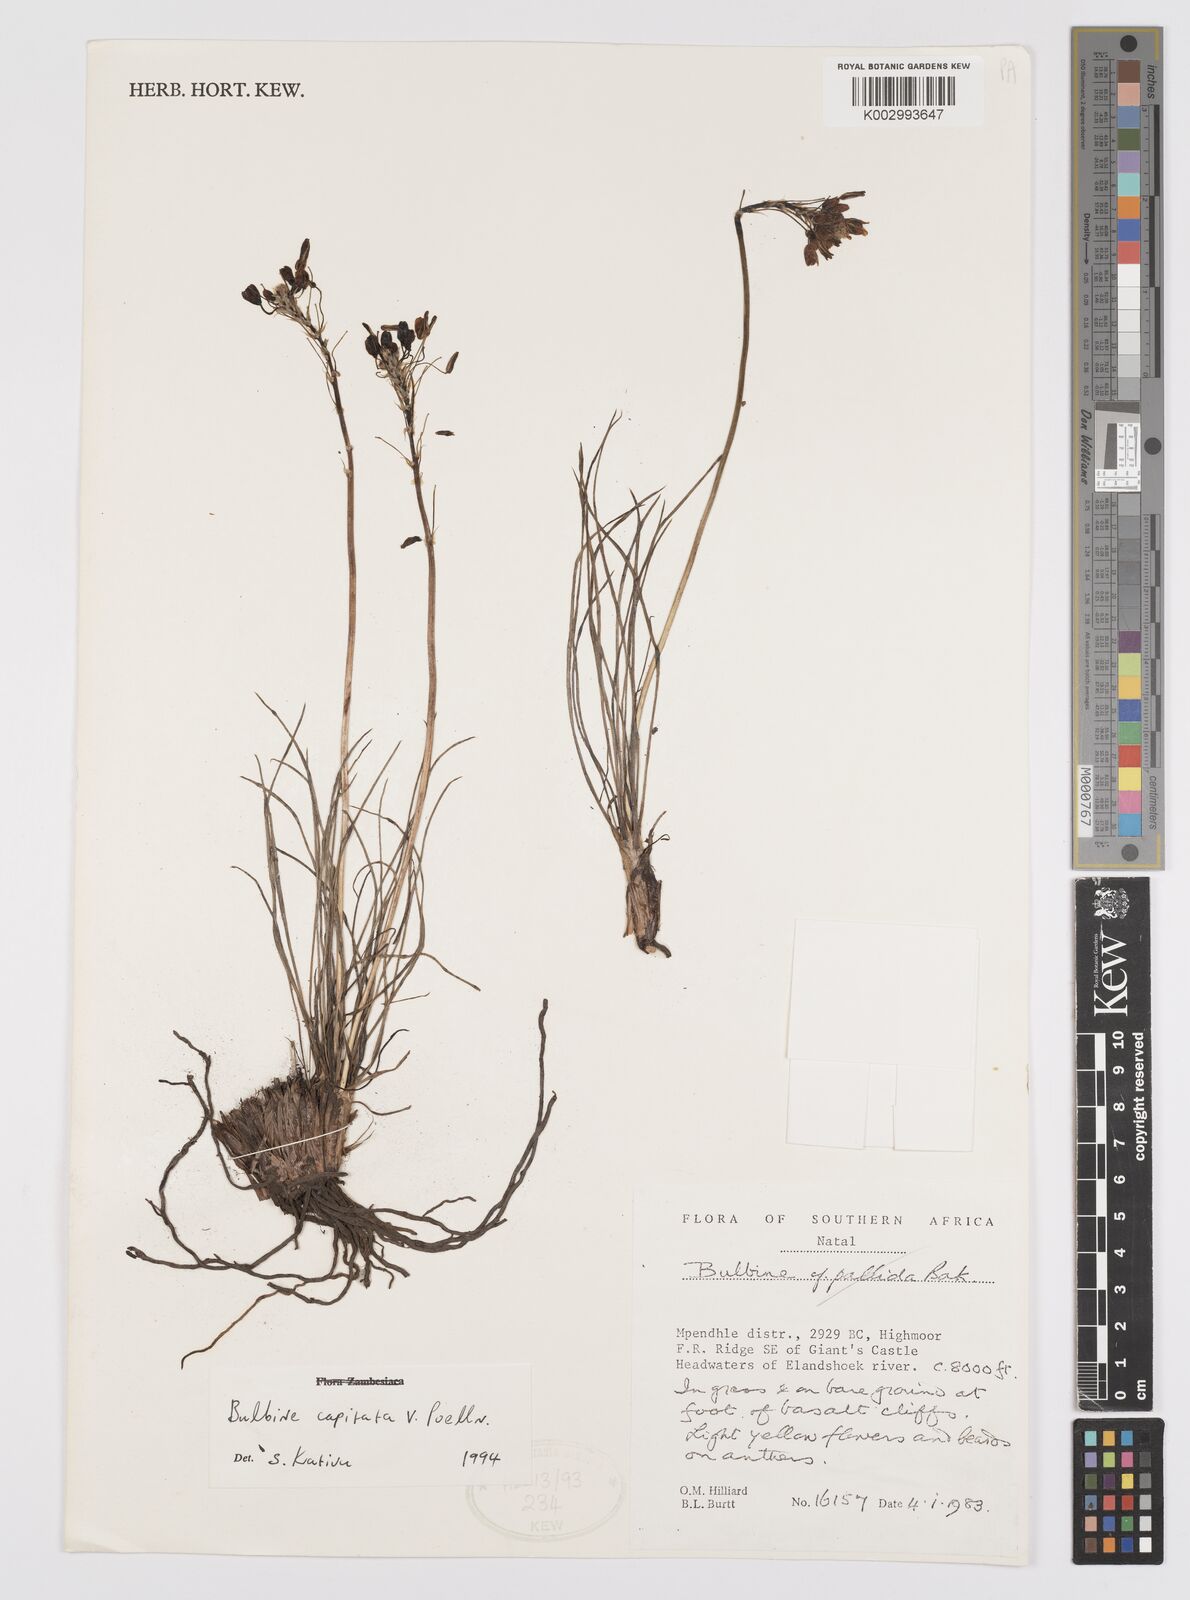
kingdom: Plantae
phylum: Tracheophyta
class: Liliopsida
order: Asparagales
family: Asphodelaceae
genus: Bulbine
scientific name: Bulbine capitata
